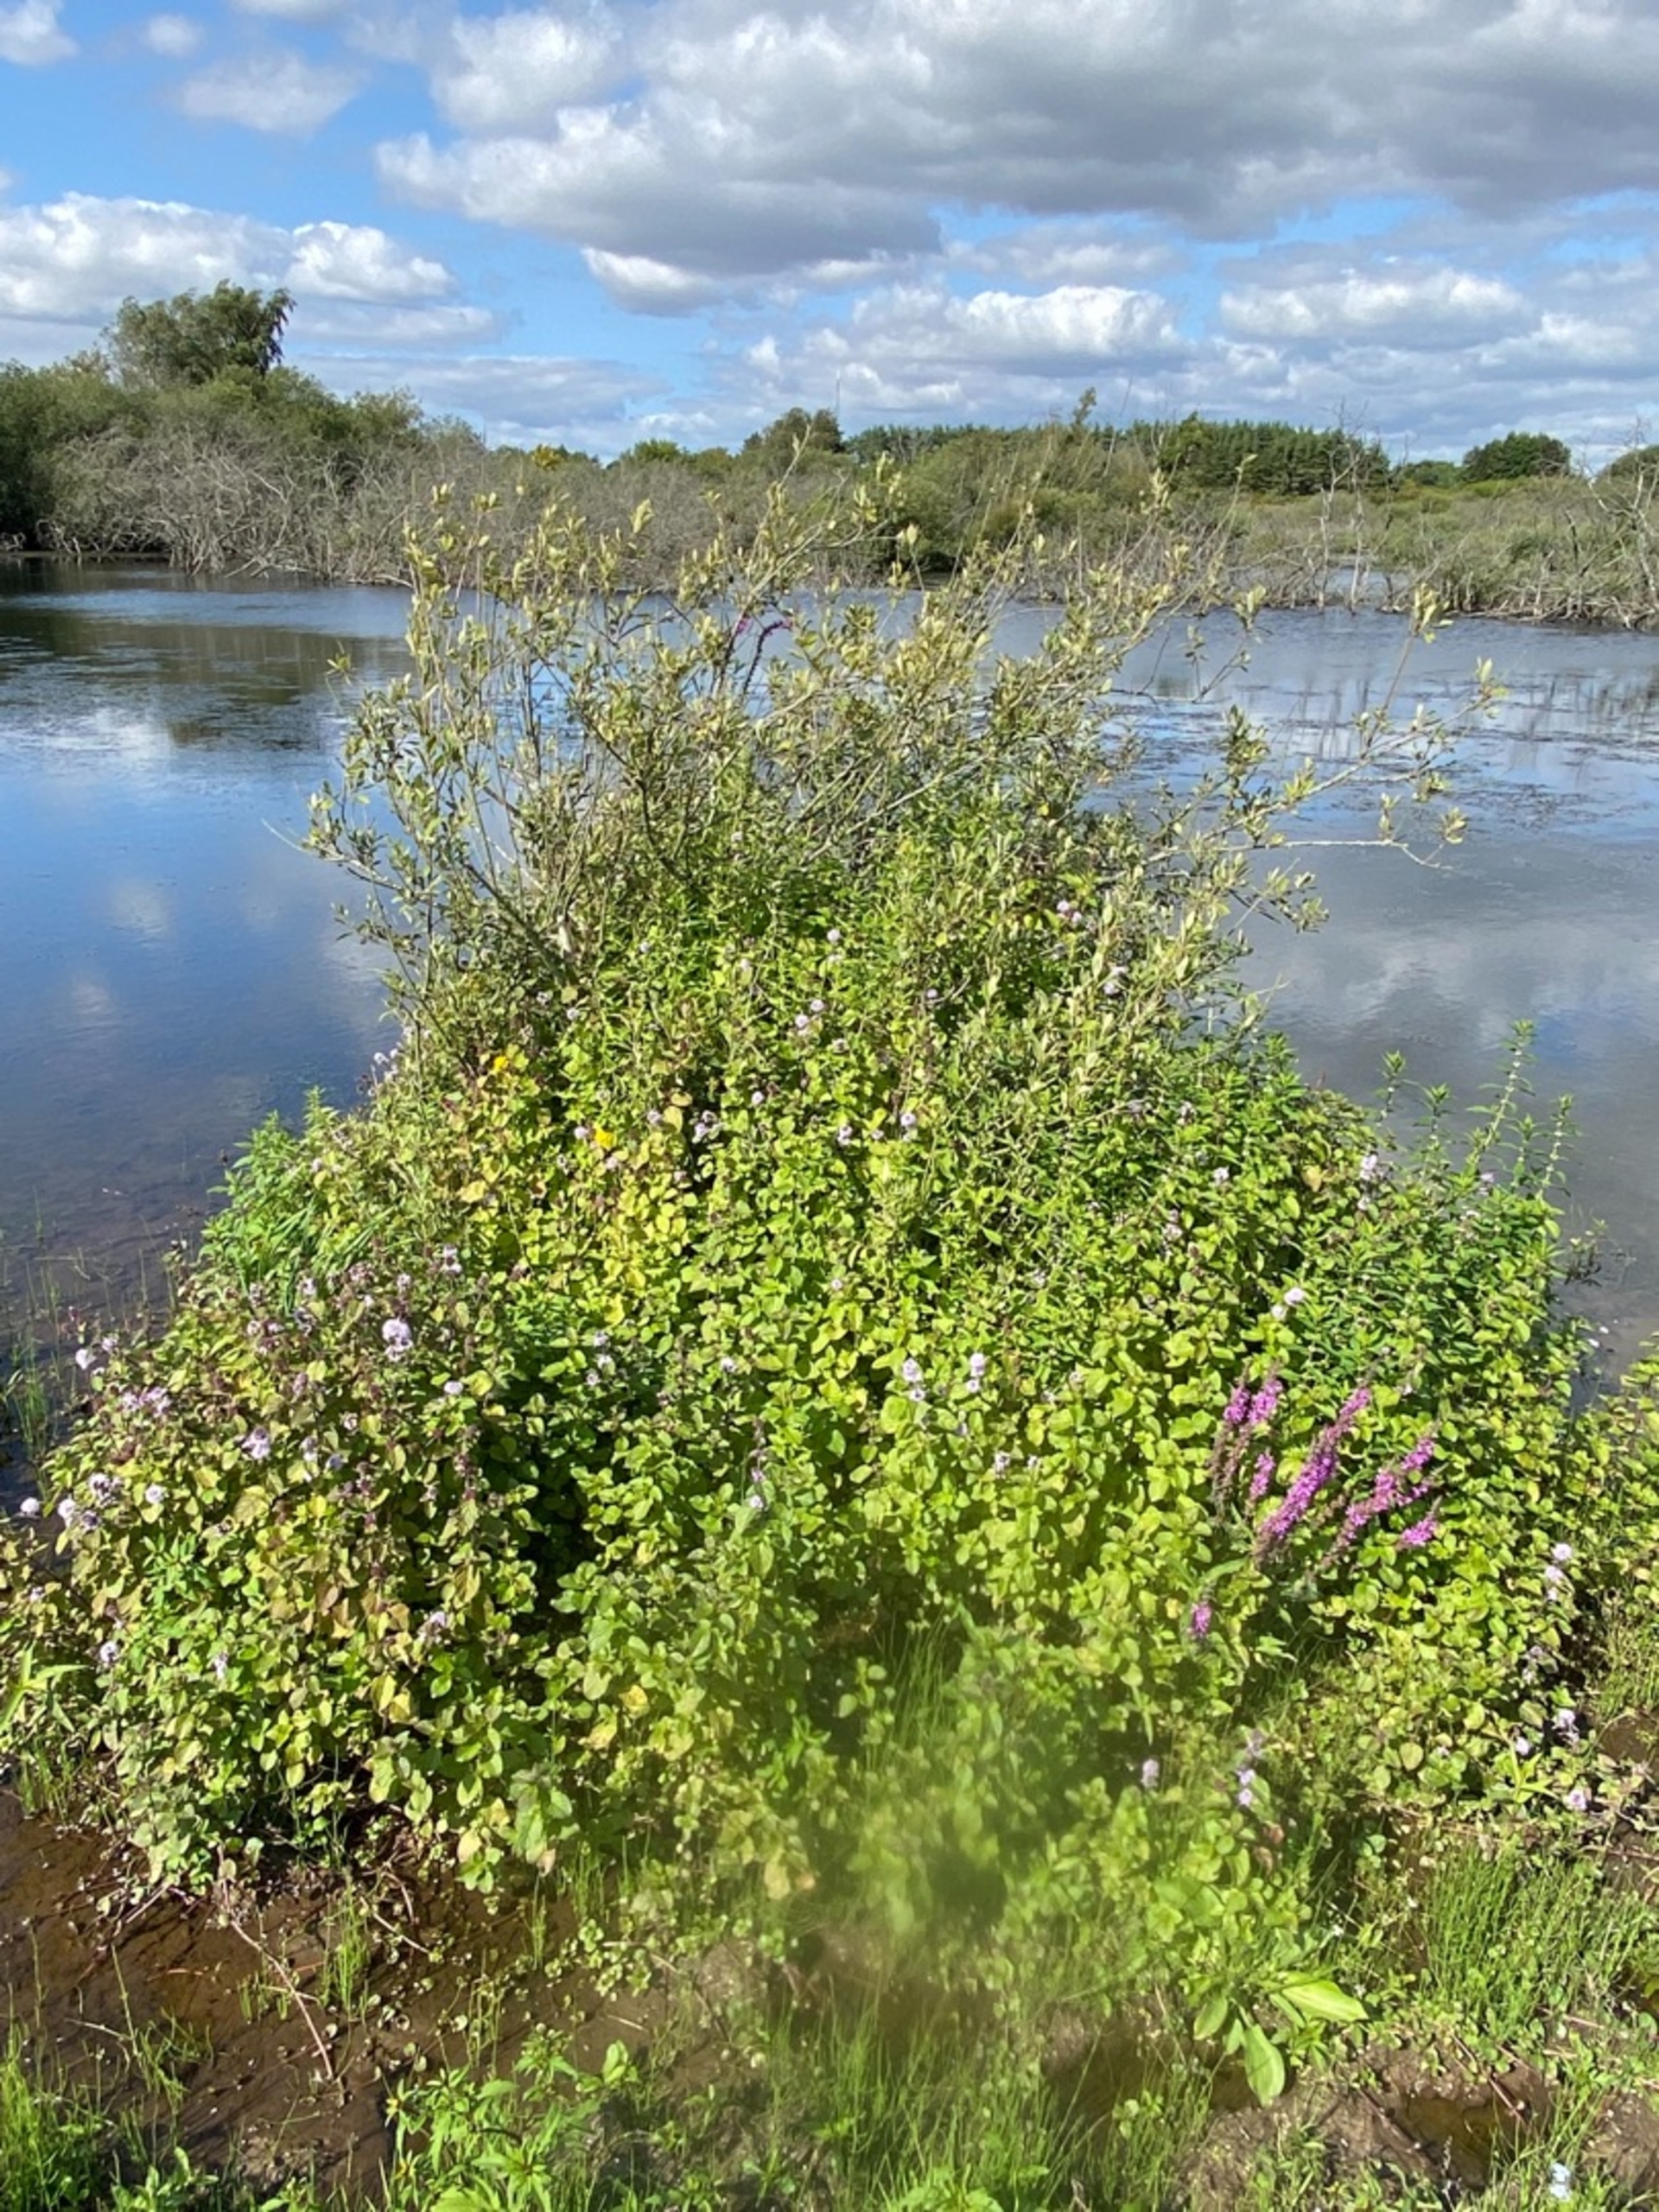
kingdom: Plantae
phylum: Tracheophyta
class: Magnoliopsida
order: Lamiales
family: Lamiaceae
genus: Mentha
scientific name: Mentha aquatica
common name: Vand-mynte
